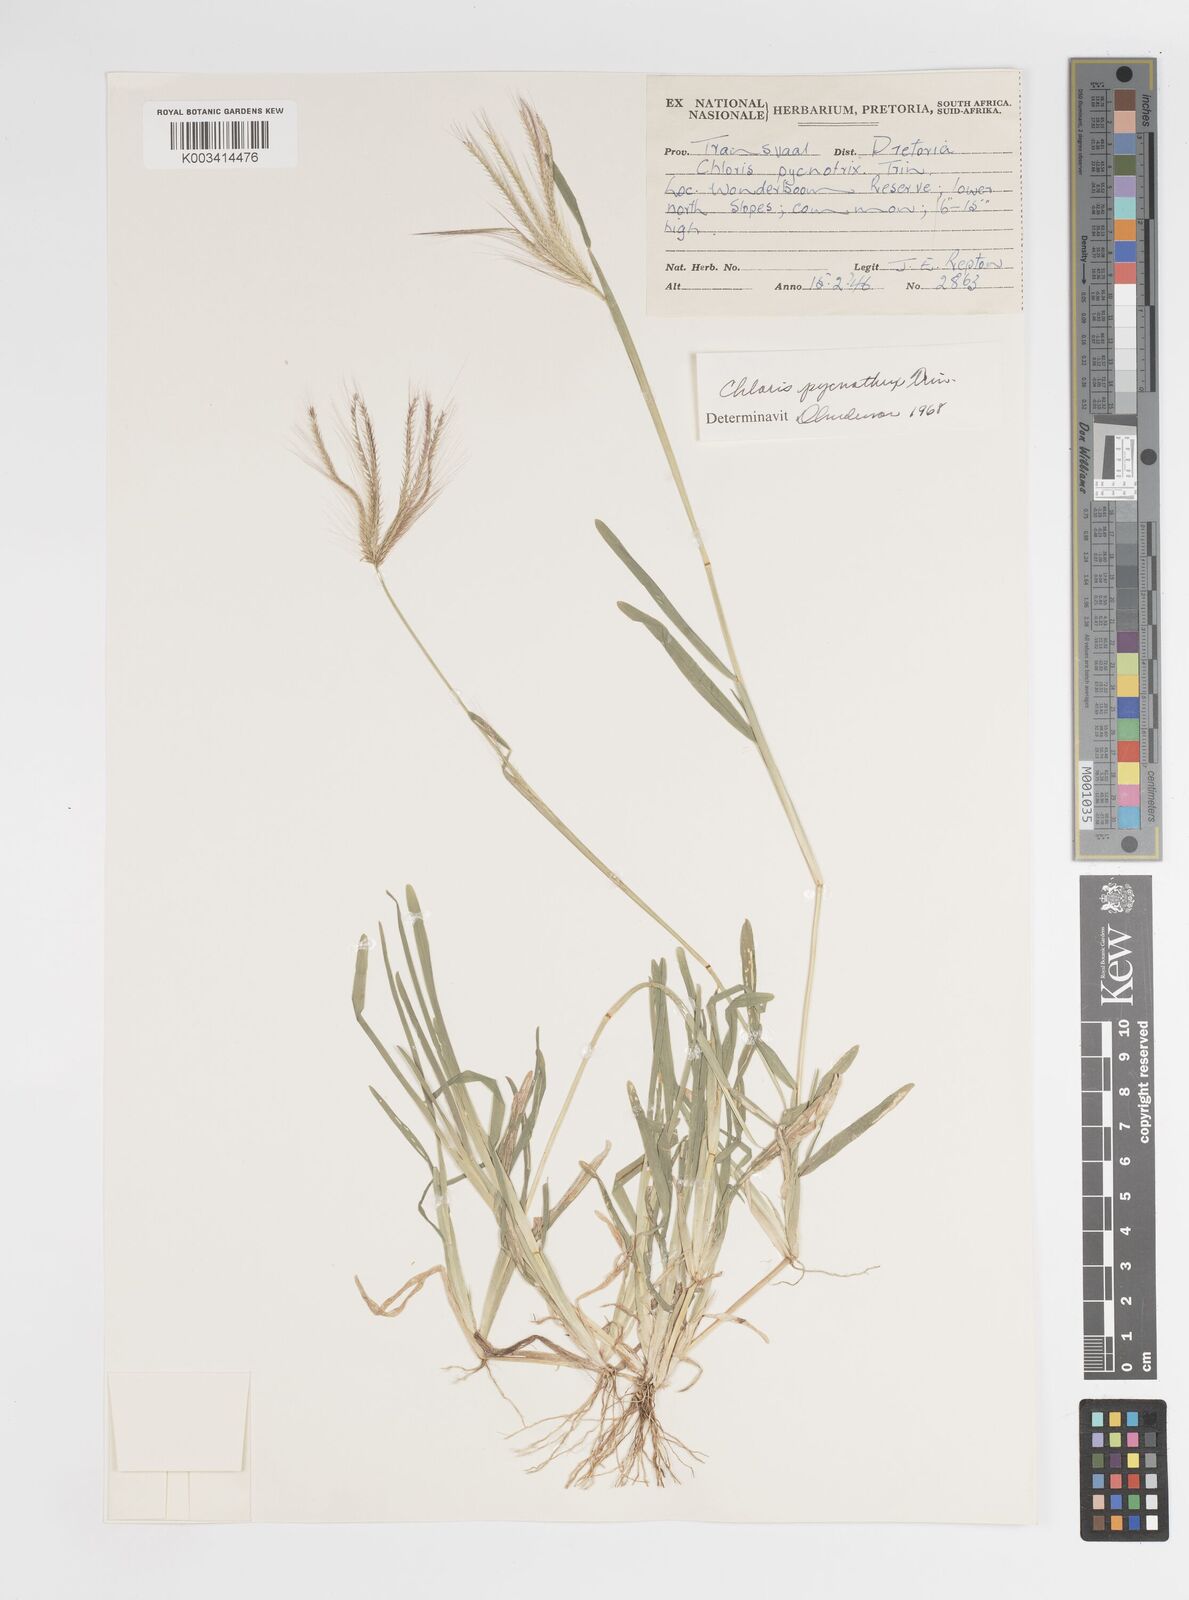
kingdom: Plantae
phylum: Tracheophyta
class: Liliopsida
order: Poales
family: Poaceae
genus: Chloris
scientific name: Chloris pycnothrix
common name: Spiderweb chloris
